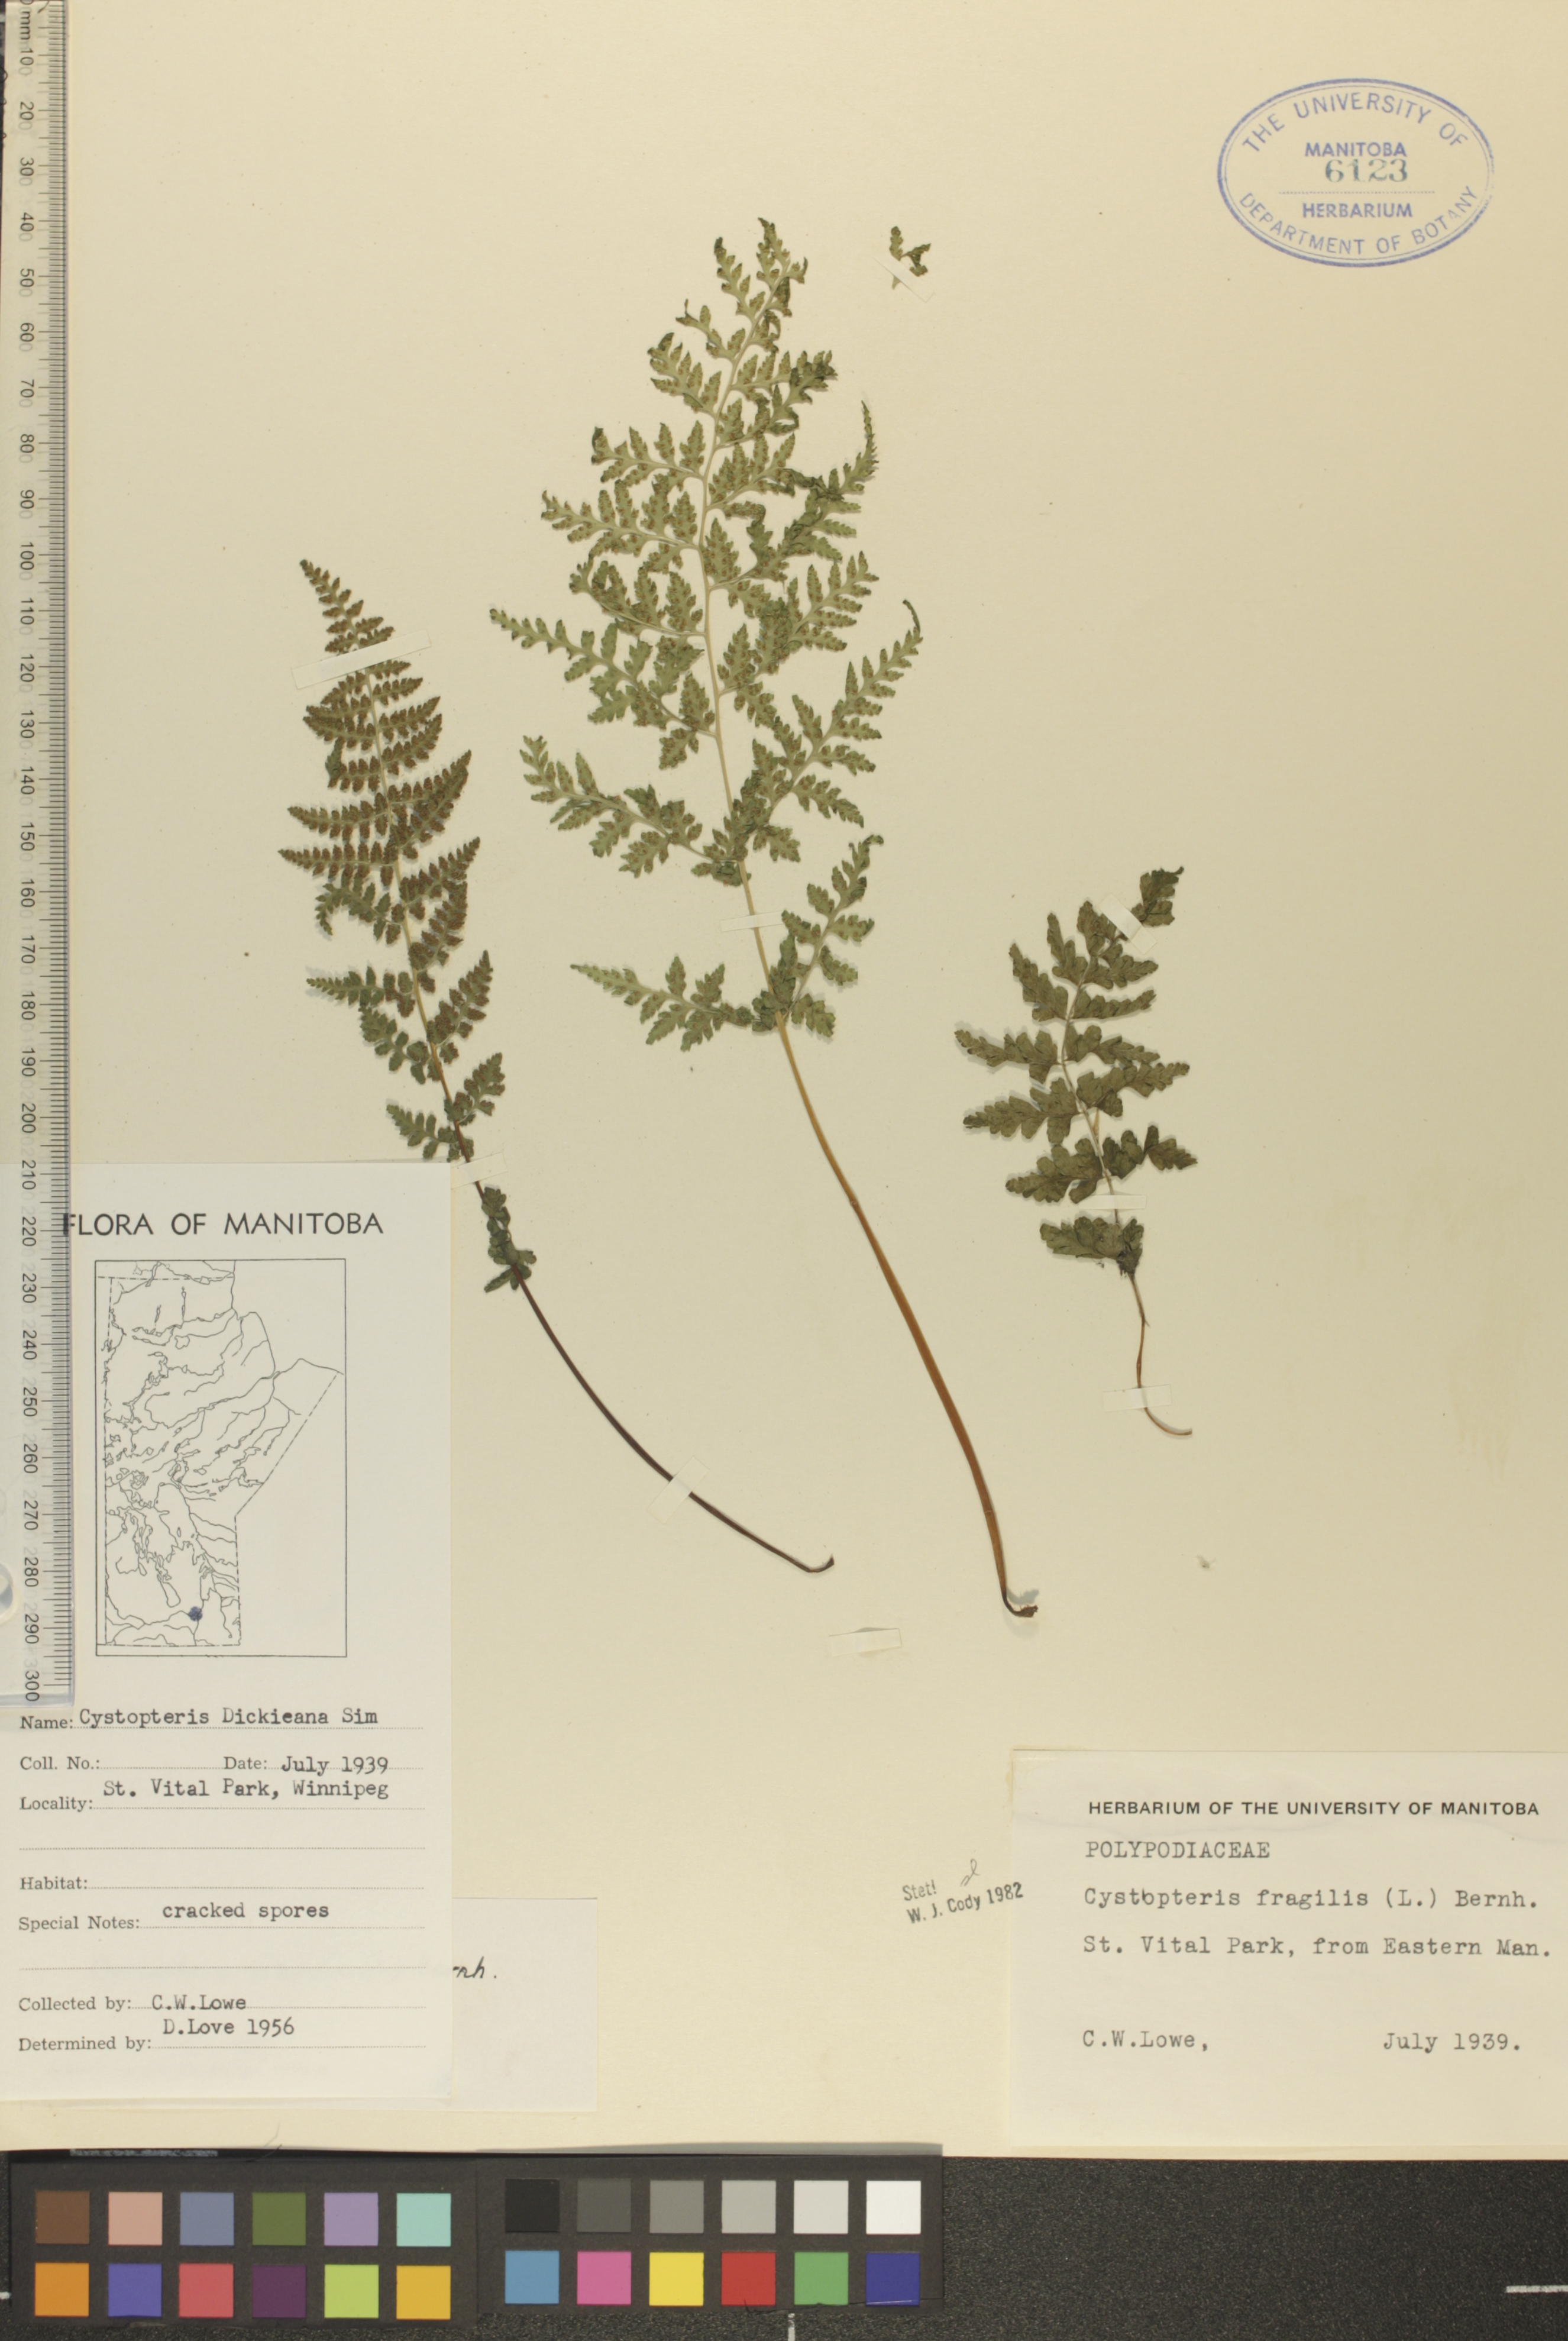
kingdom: Plantae
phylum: Tracheophyta
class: Polypodiopsida
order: Polypodiales
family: Cystopteridaceae
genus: Cystopteris
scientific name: Cystopteris tenuis
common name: Mackay's brittle fern
